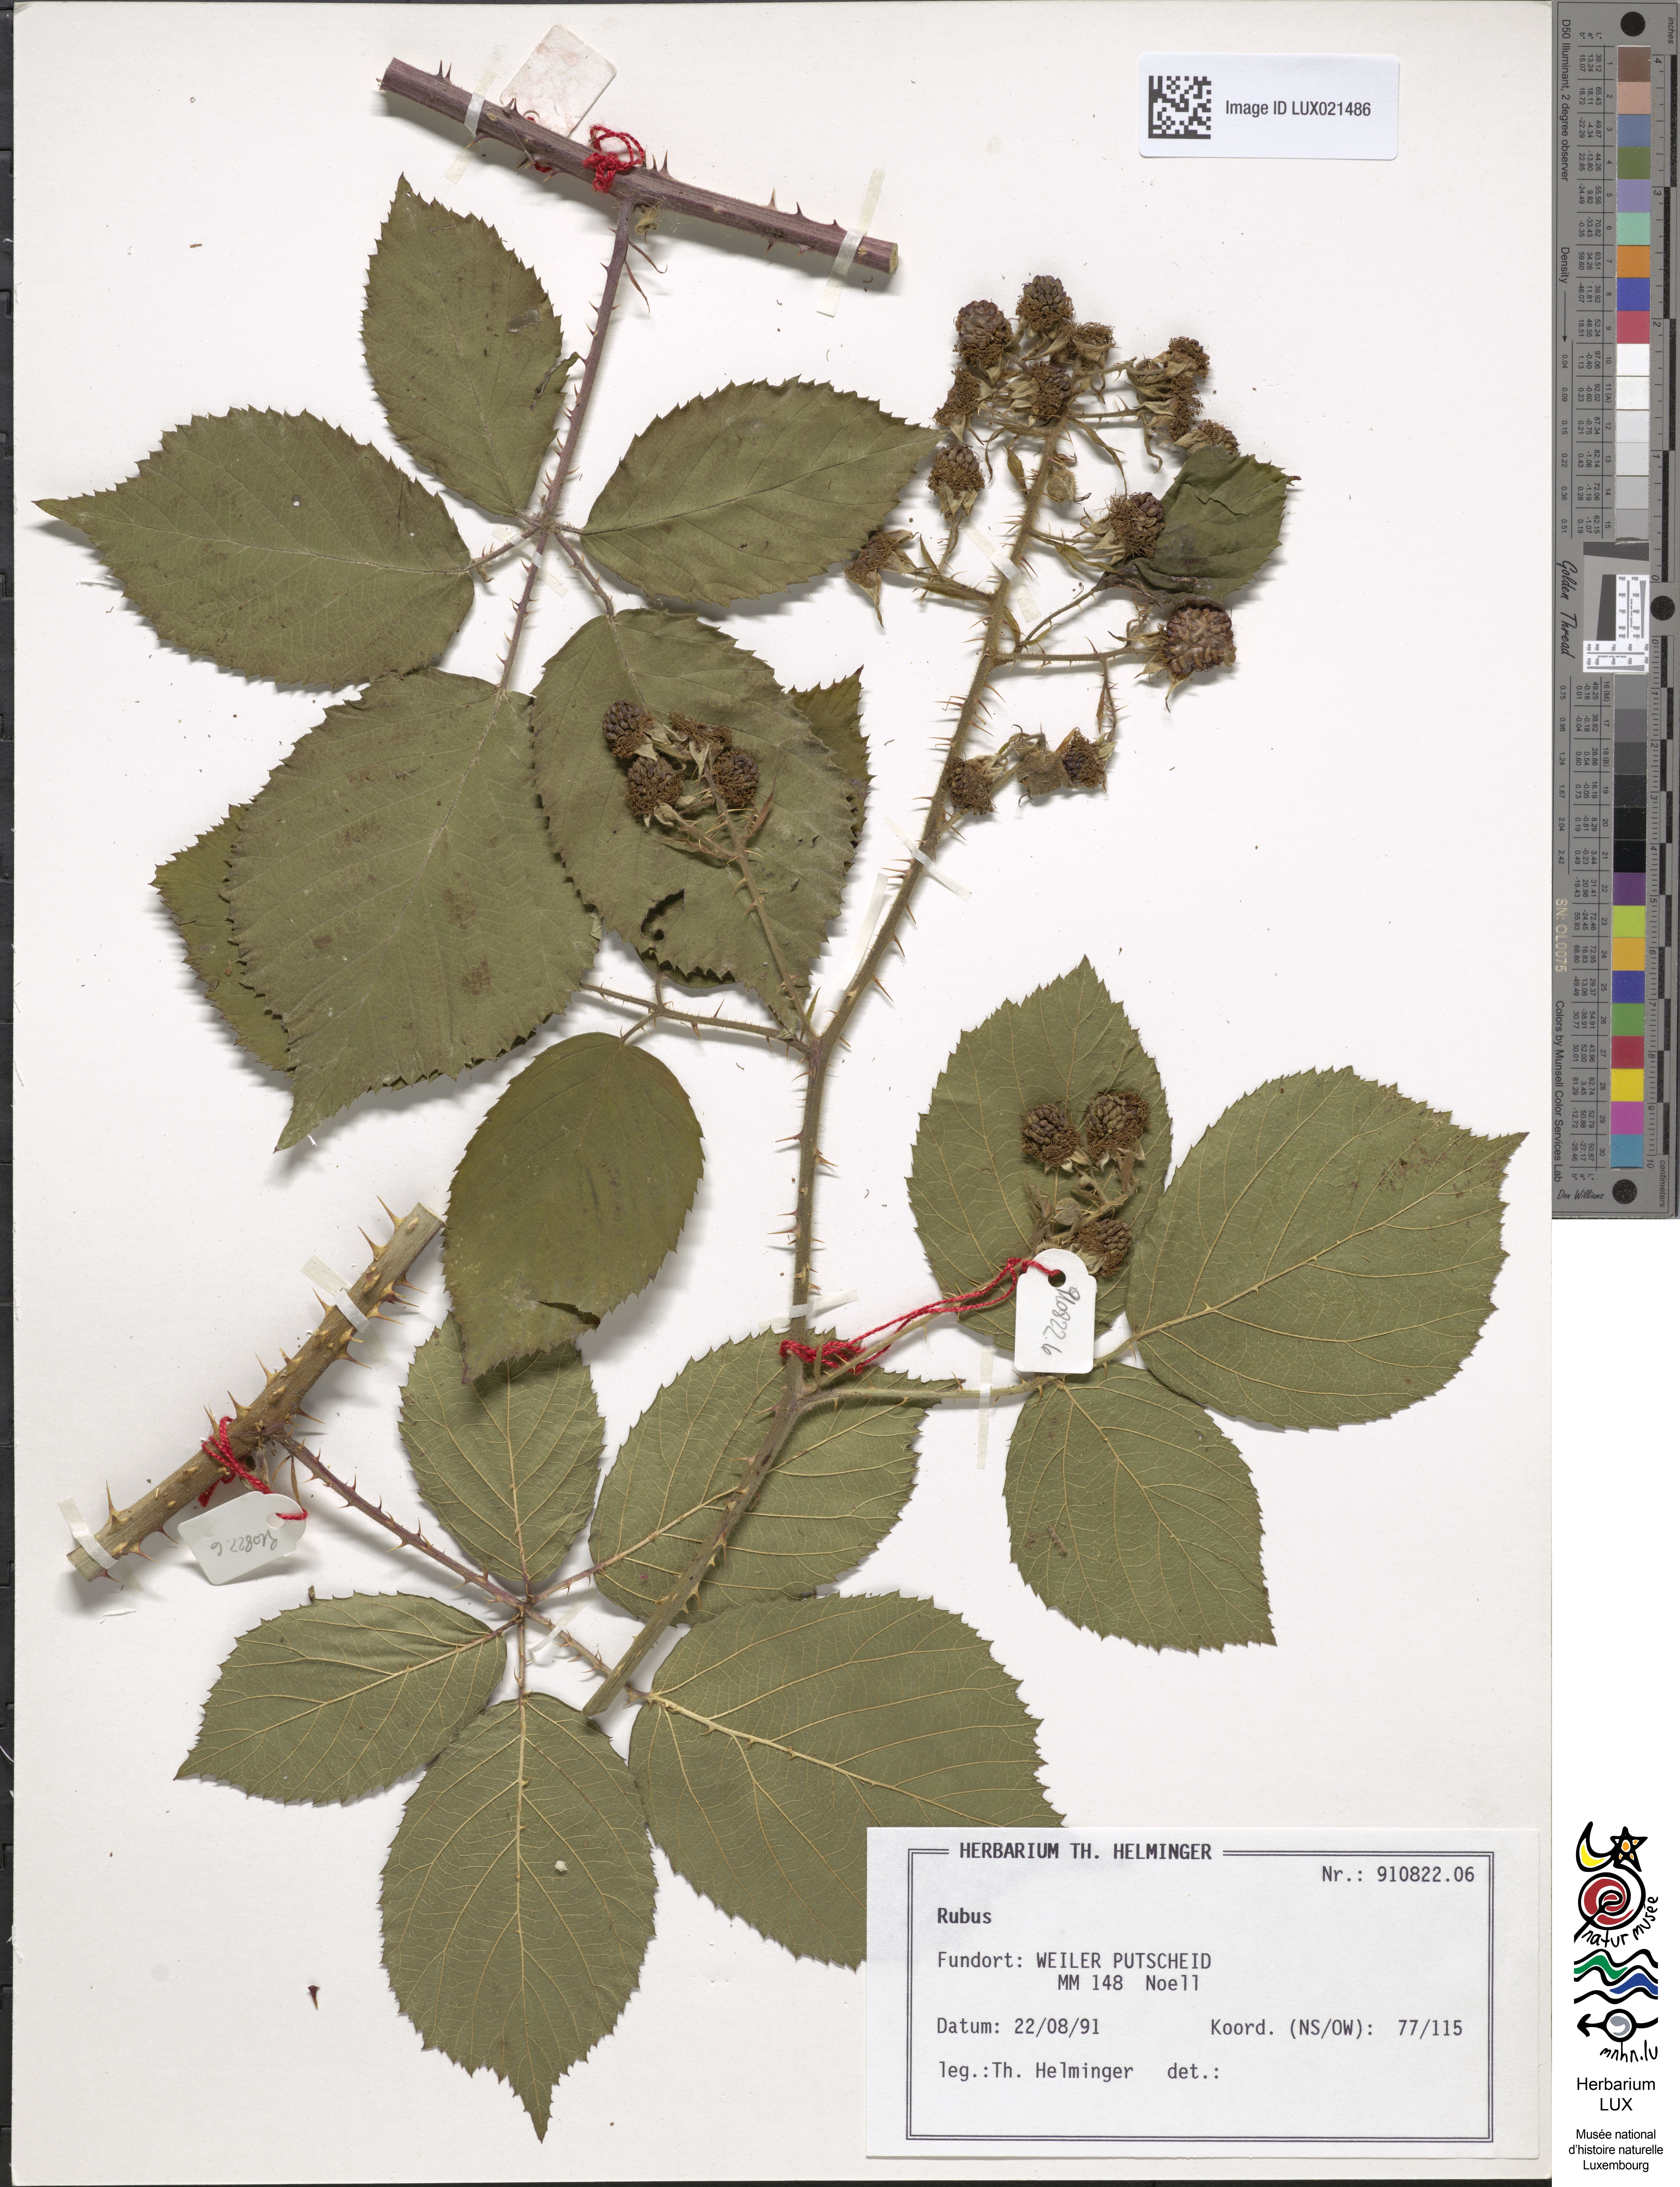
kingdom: Plantae
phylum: Tracheophyta
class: Magnoliopsida
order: Rosales
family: Rosaceae
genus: Rubus
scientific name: Rubus
